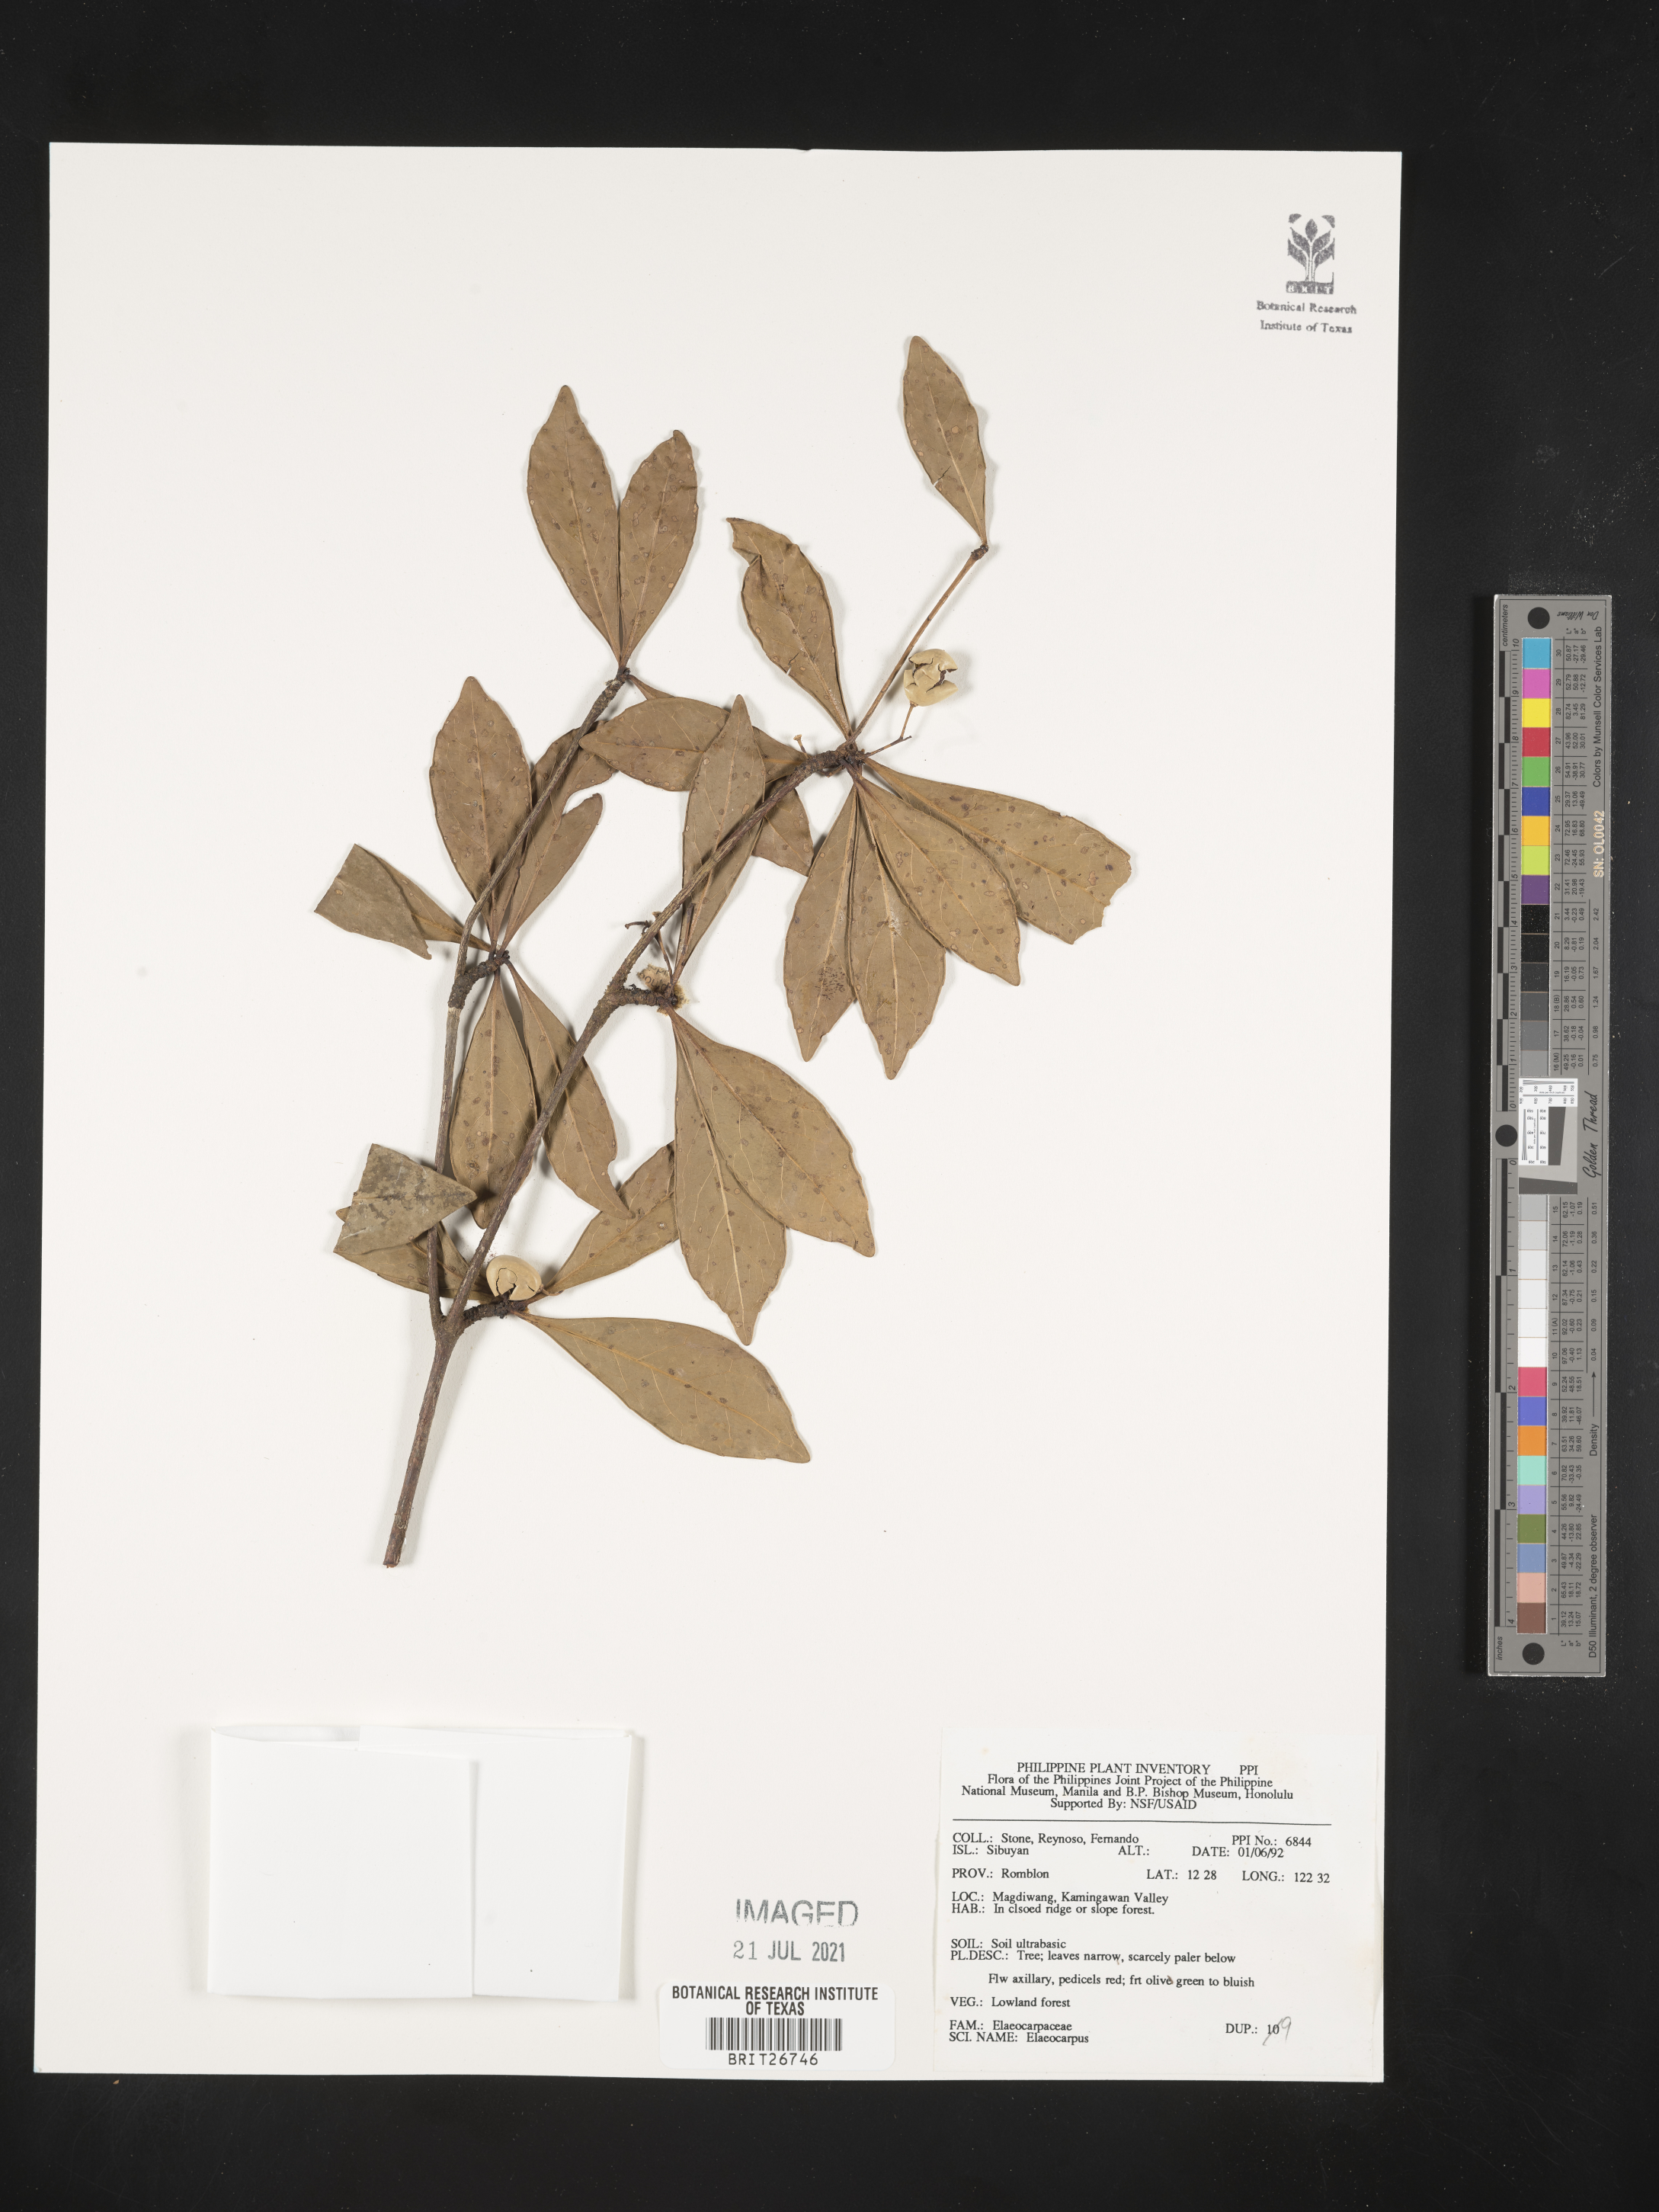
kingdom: Plantae
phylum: Tracheophyta
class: Magnoliopsida
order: Oxalidales
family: Elaeocarpaceae
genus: Elaeocarpus
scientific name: Elaeocarpus
